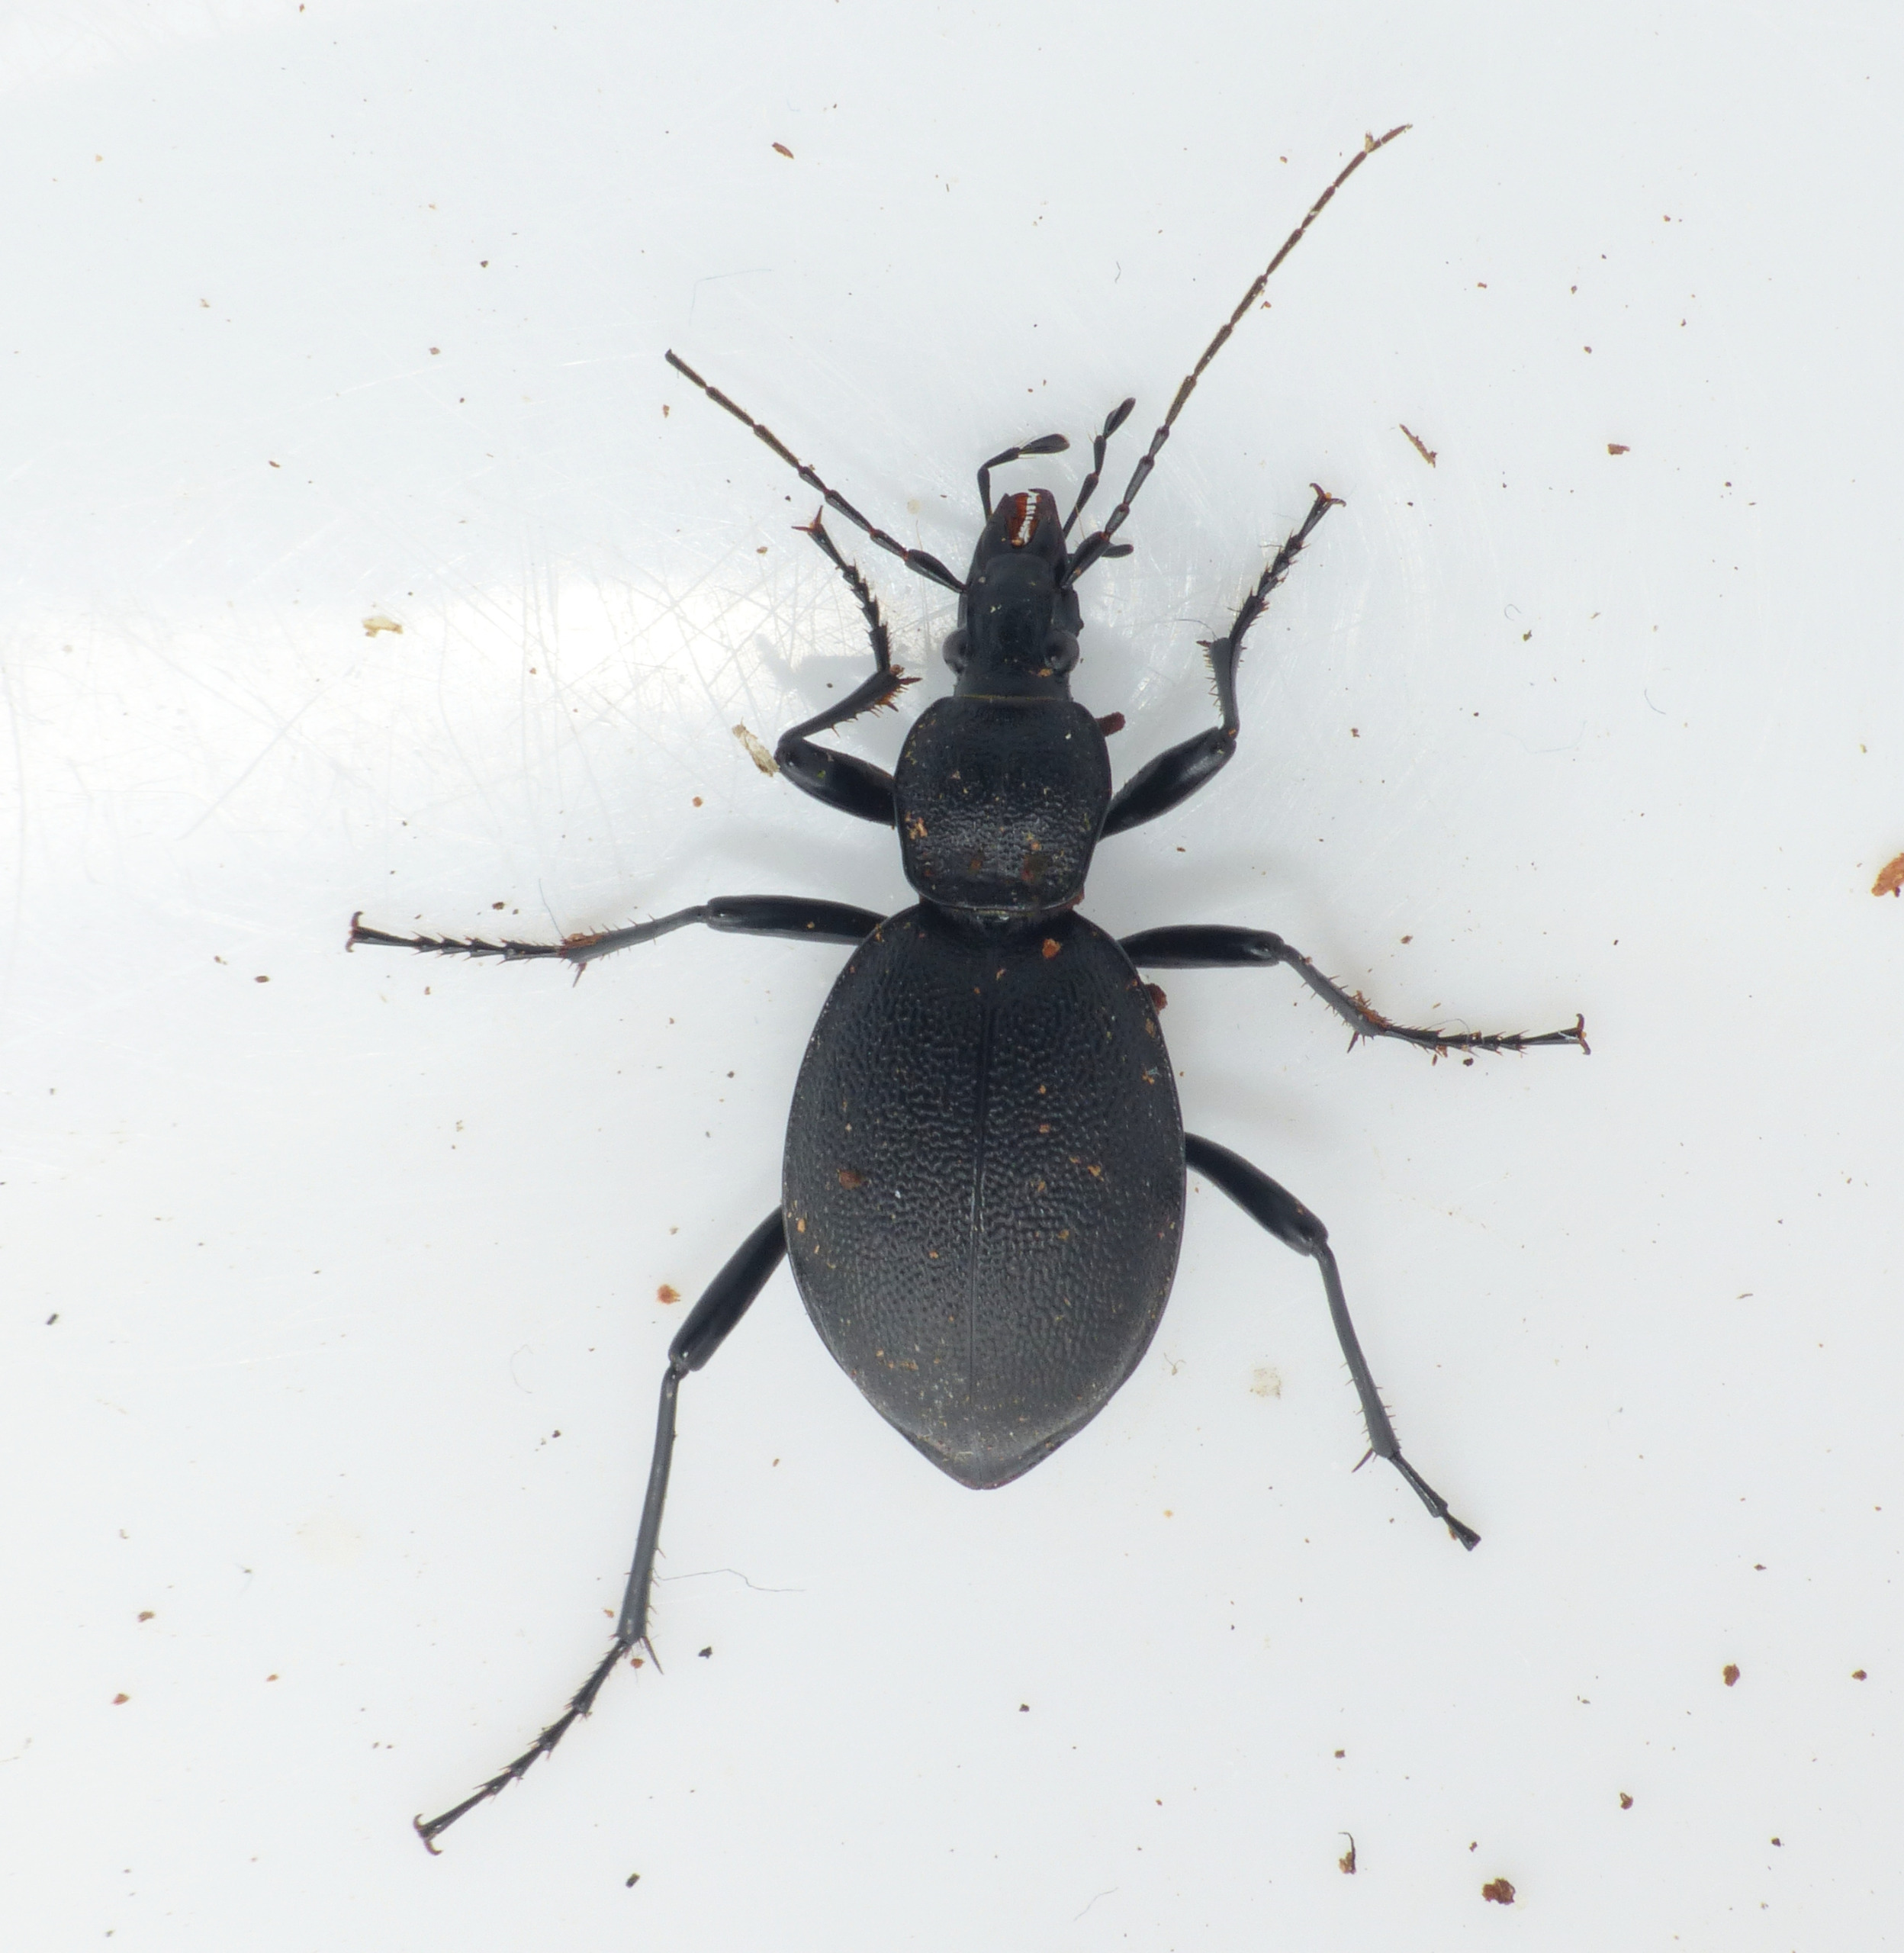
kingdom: Animalia
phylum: Arthropoda
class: Insecta
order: Coleoptera
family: Carabidae
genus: Cychrus
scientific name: Cychrus caraboides
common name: Sneglerøver
